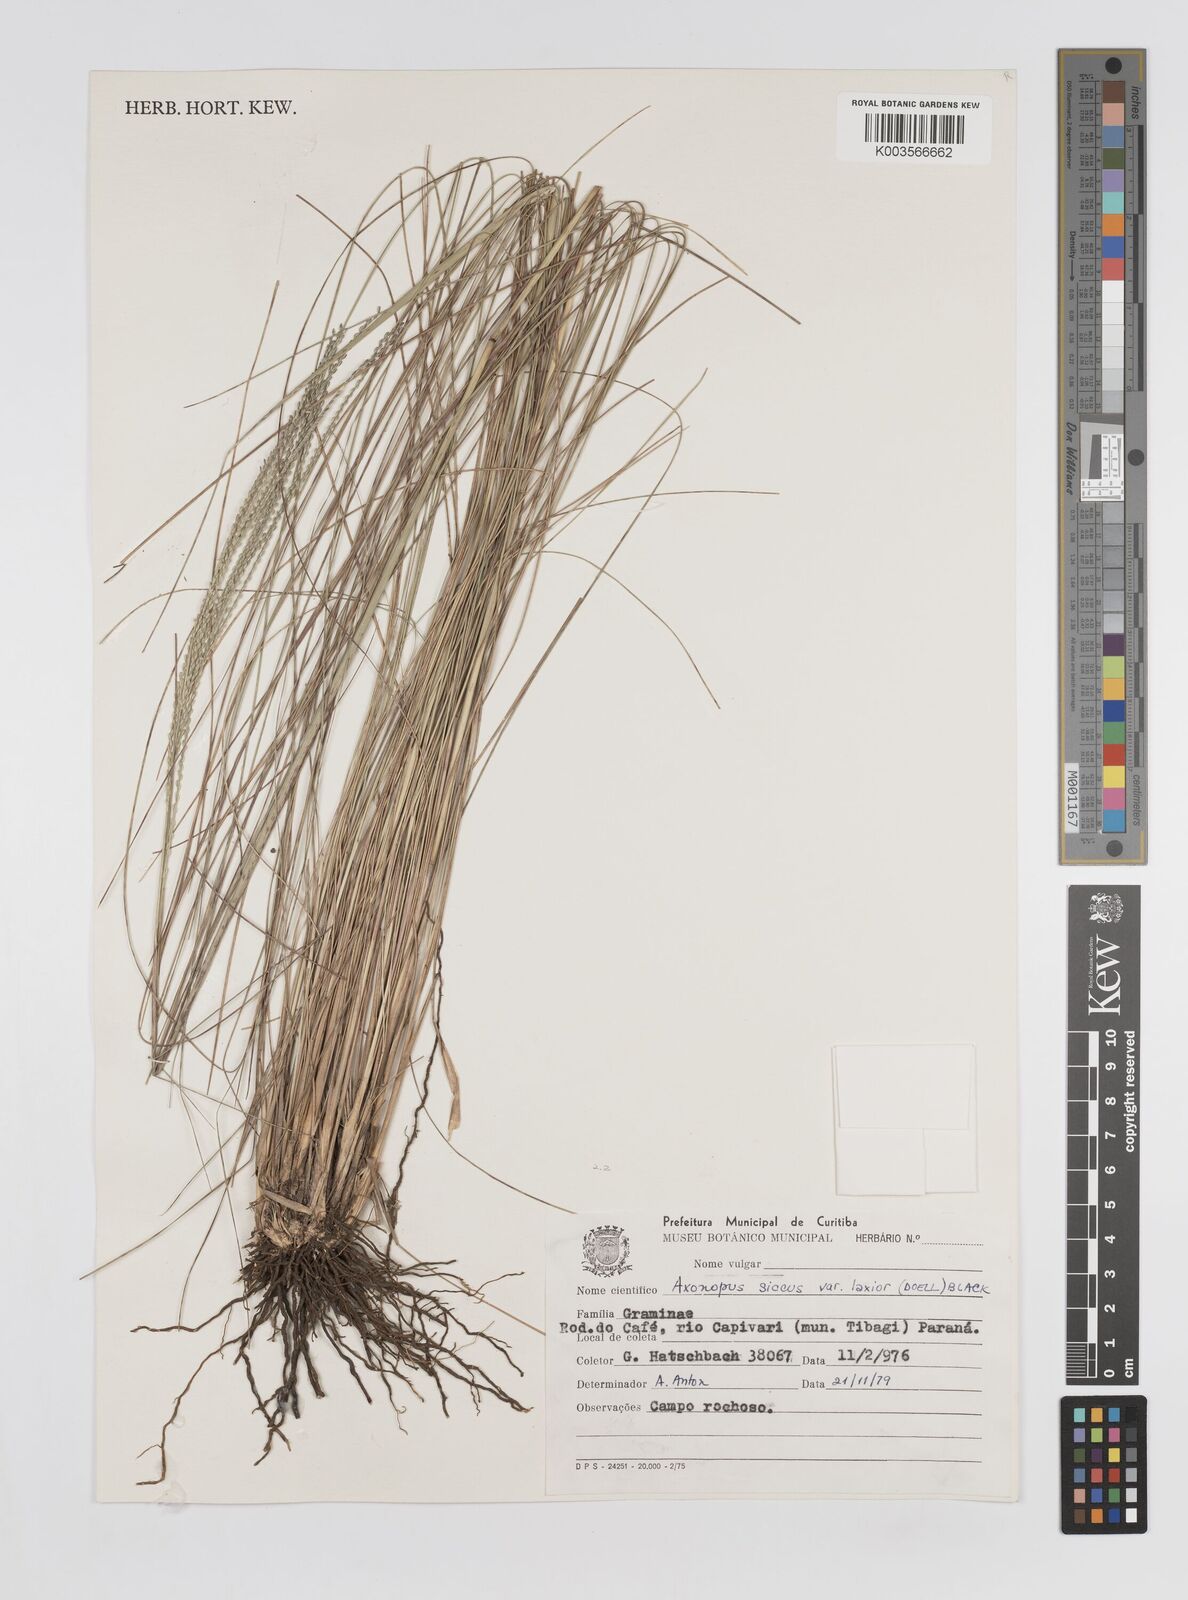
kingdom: Plantae
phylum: Tracheophyta
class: Liliopsida
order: Poales
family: Poaceae
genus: Axonopus
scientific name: Axonopus siccus
